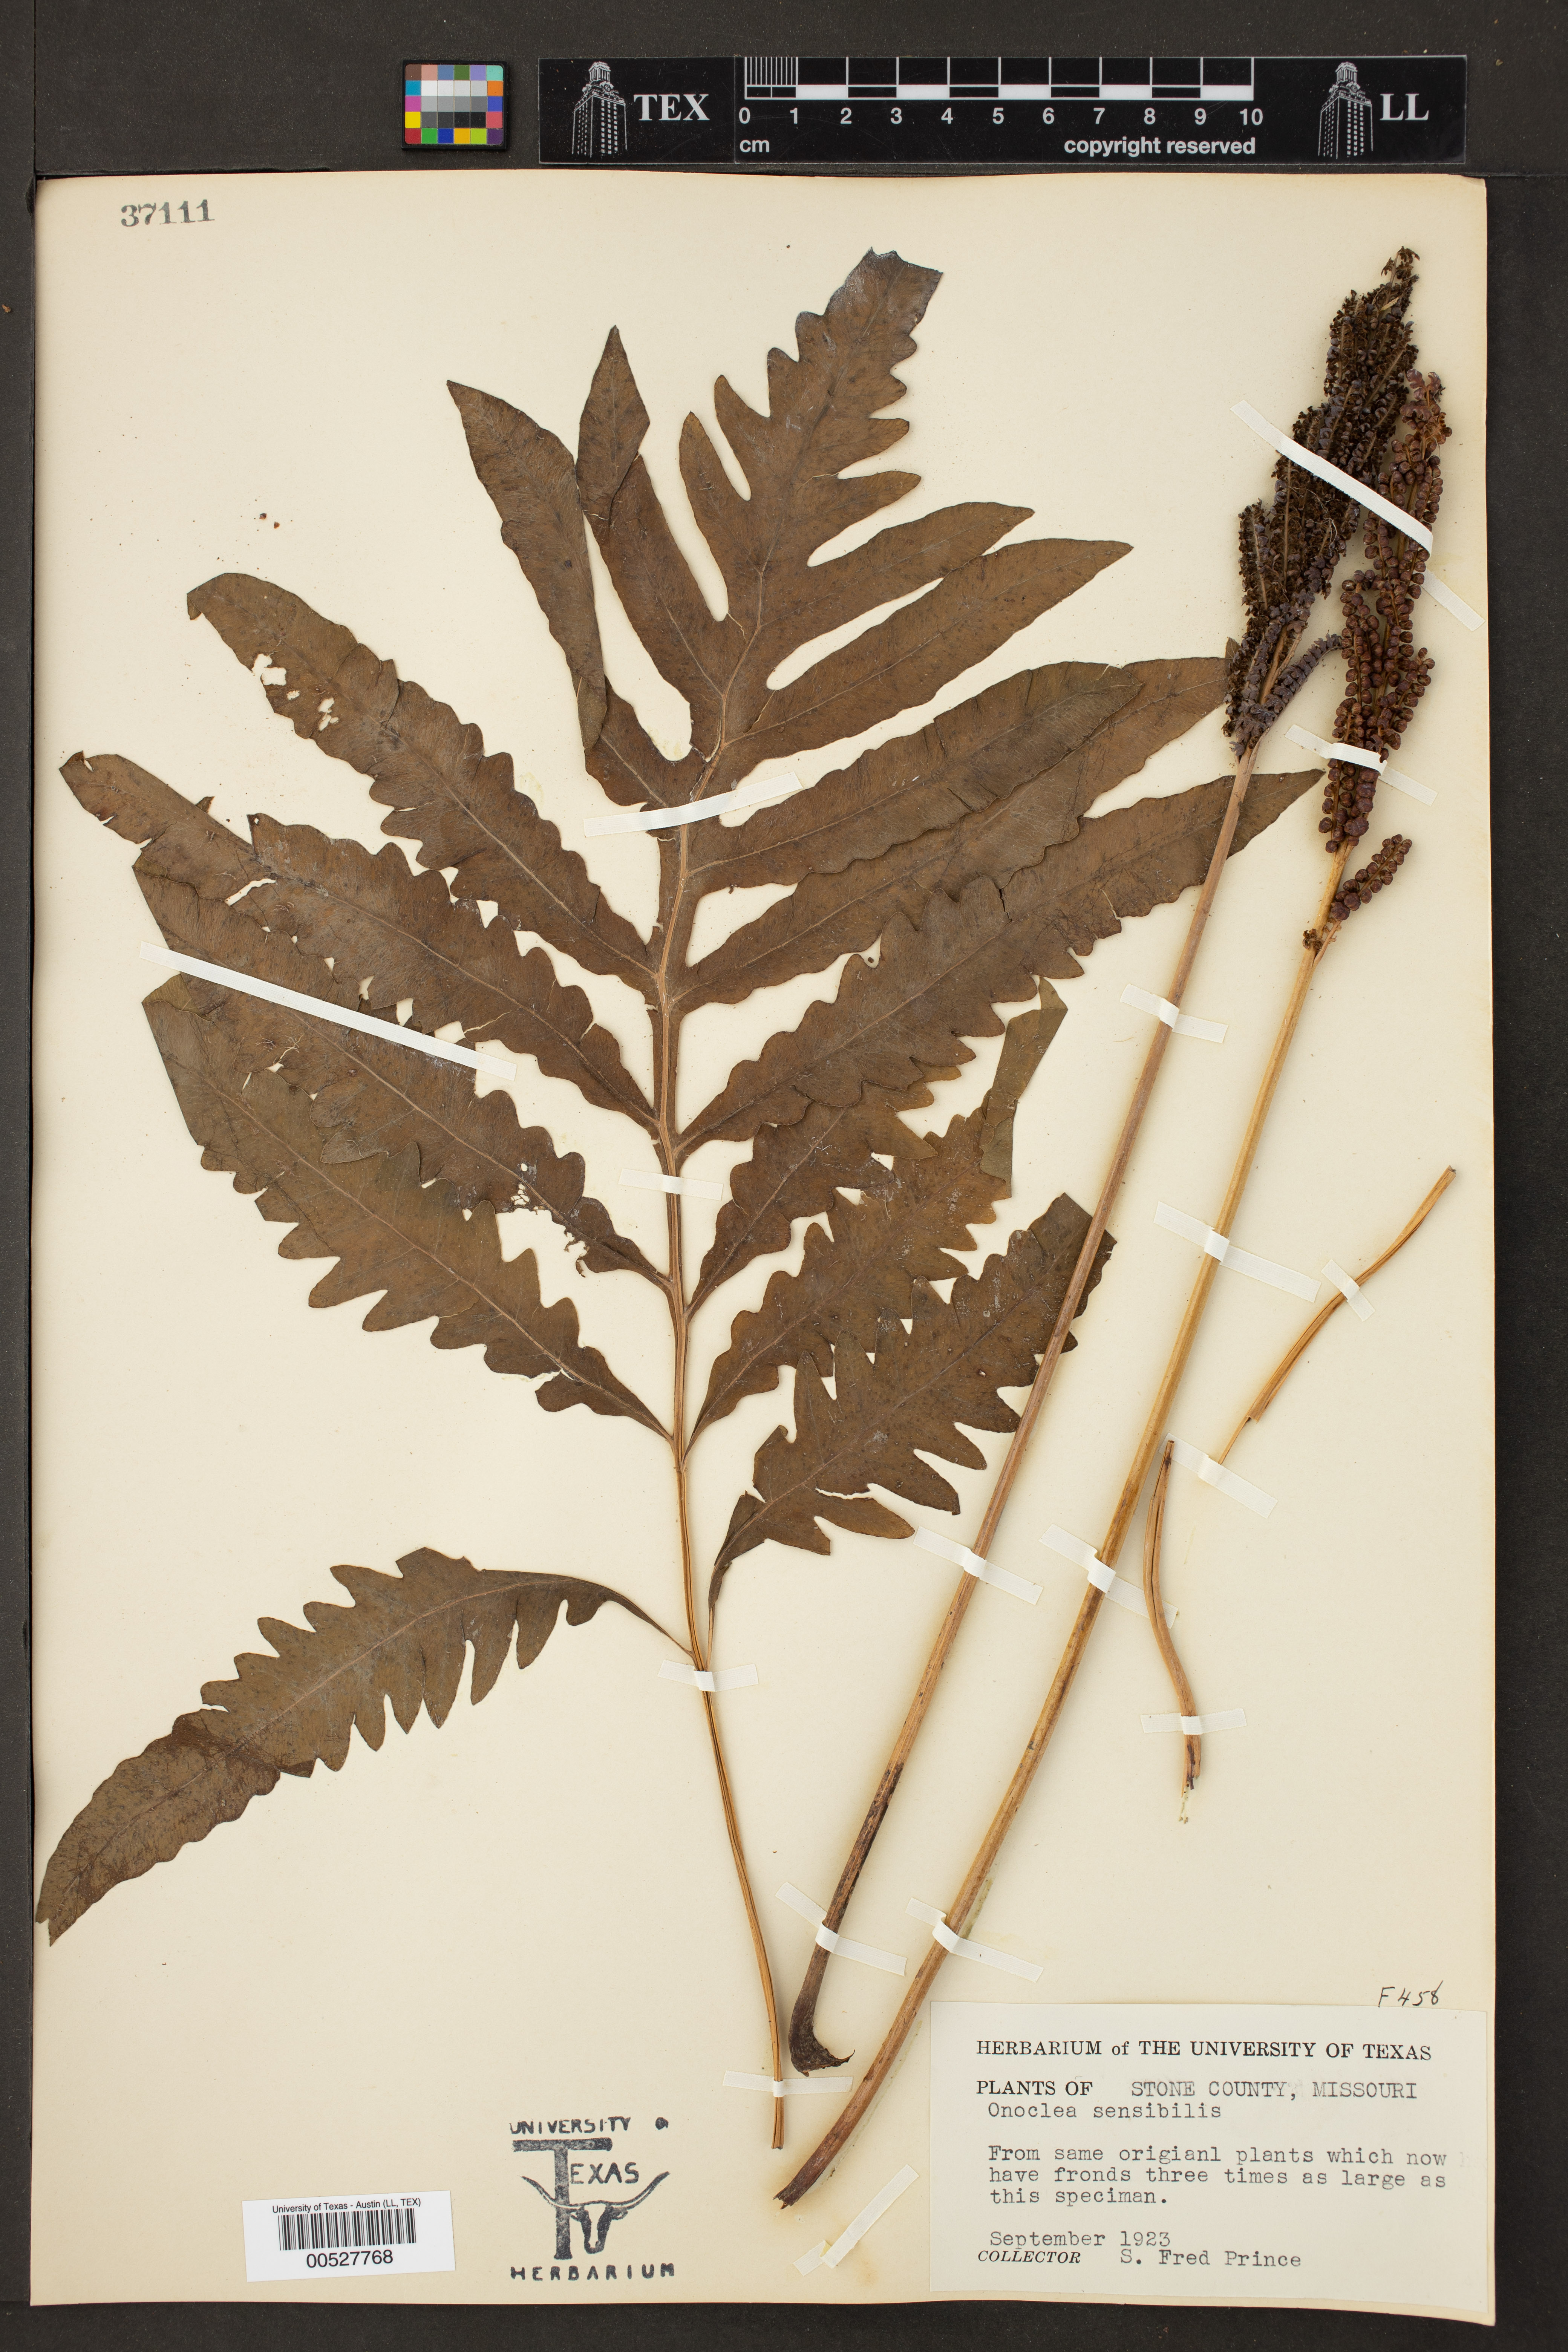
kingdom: Plantae
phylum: Tracheophyta
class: Polypodiopsida
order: Polypodiales
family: Onocleaceae
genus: Onoclea
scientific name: Onoclea sensibilis
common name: Sensitive fern
